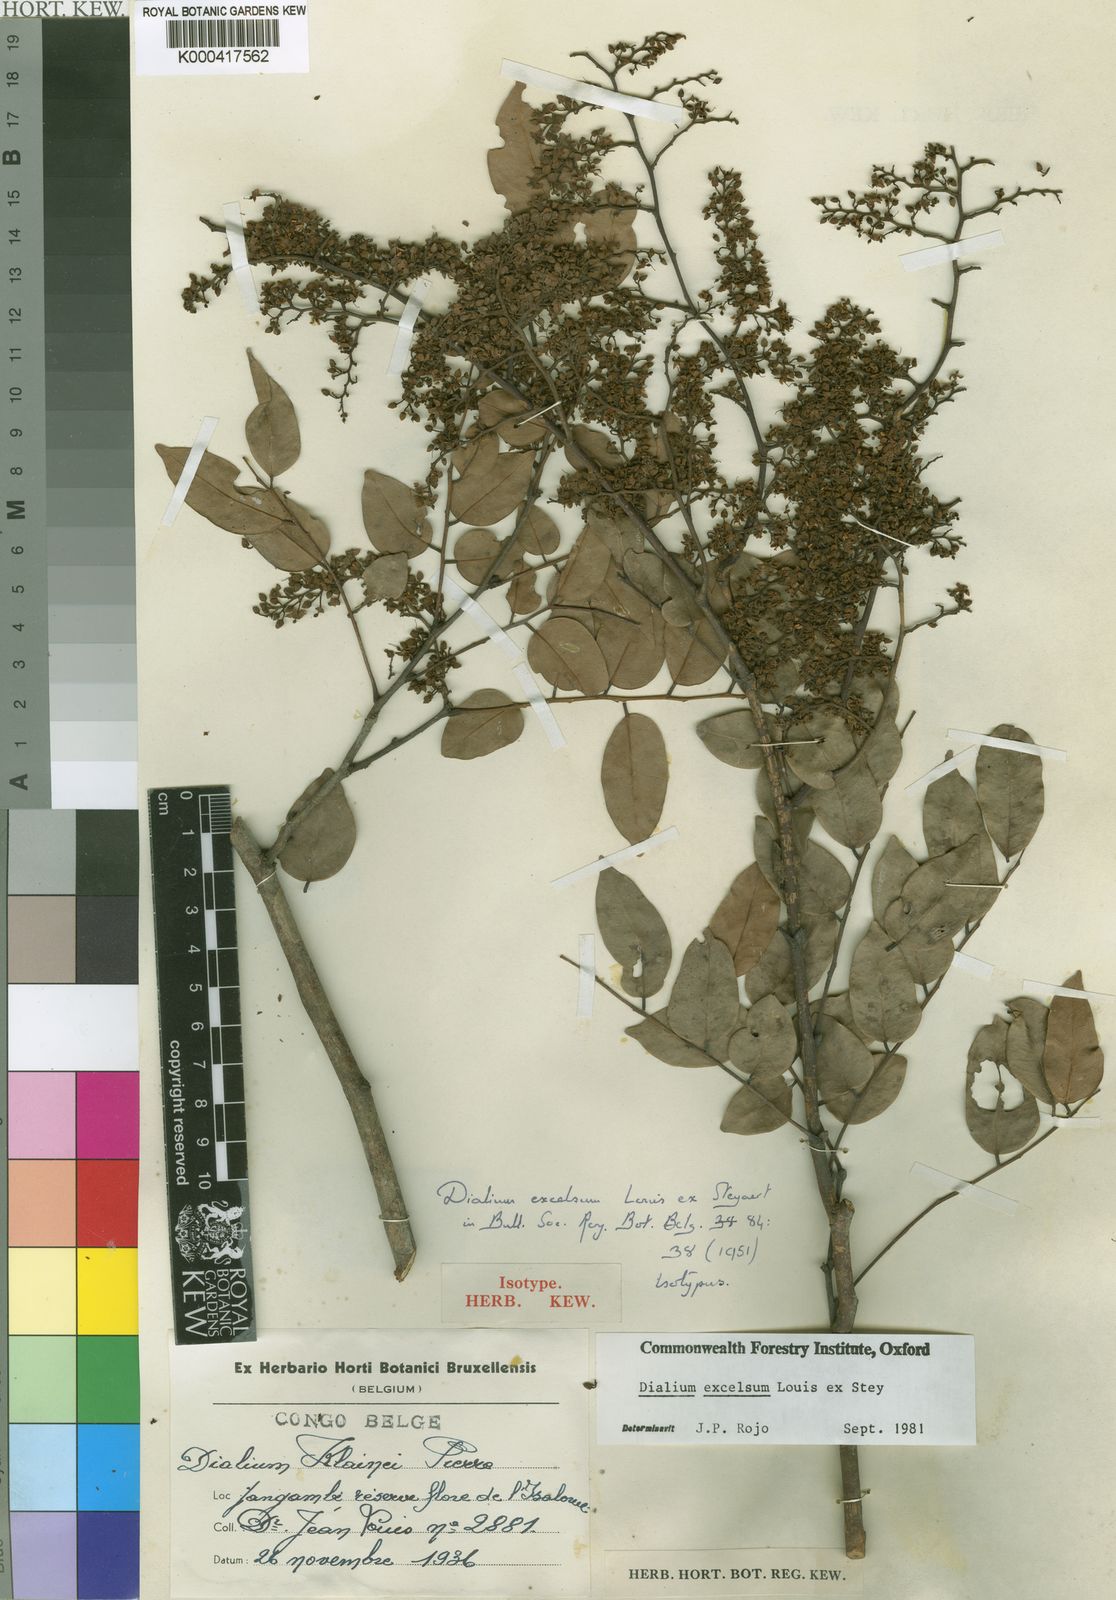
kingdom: Plantae
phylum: Tracheophyta
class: Magnoliopsida
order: Fabales
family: Fabaceae
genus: Dialium
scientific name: Dialium excelsum
